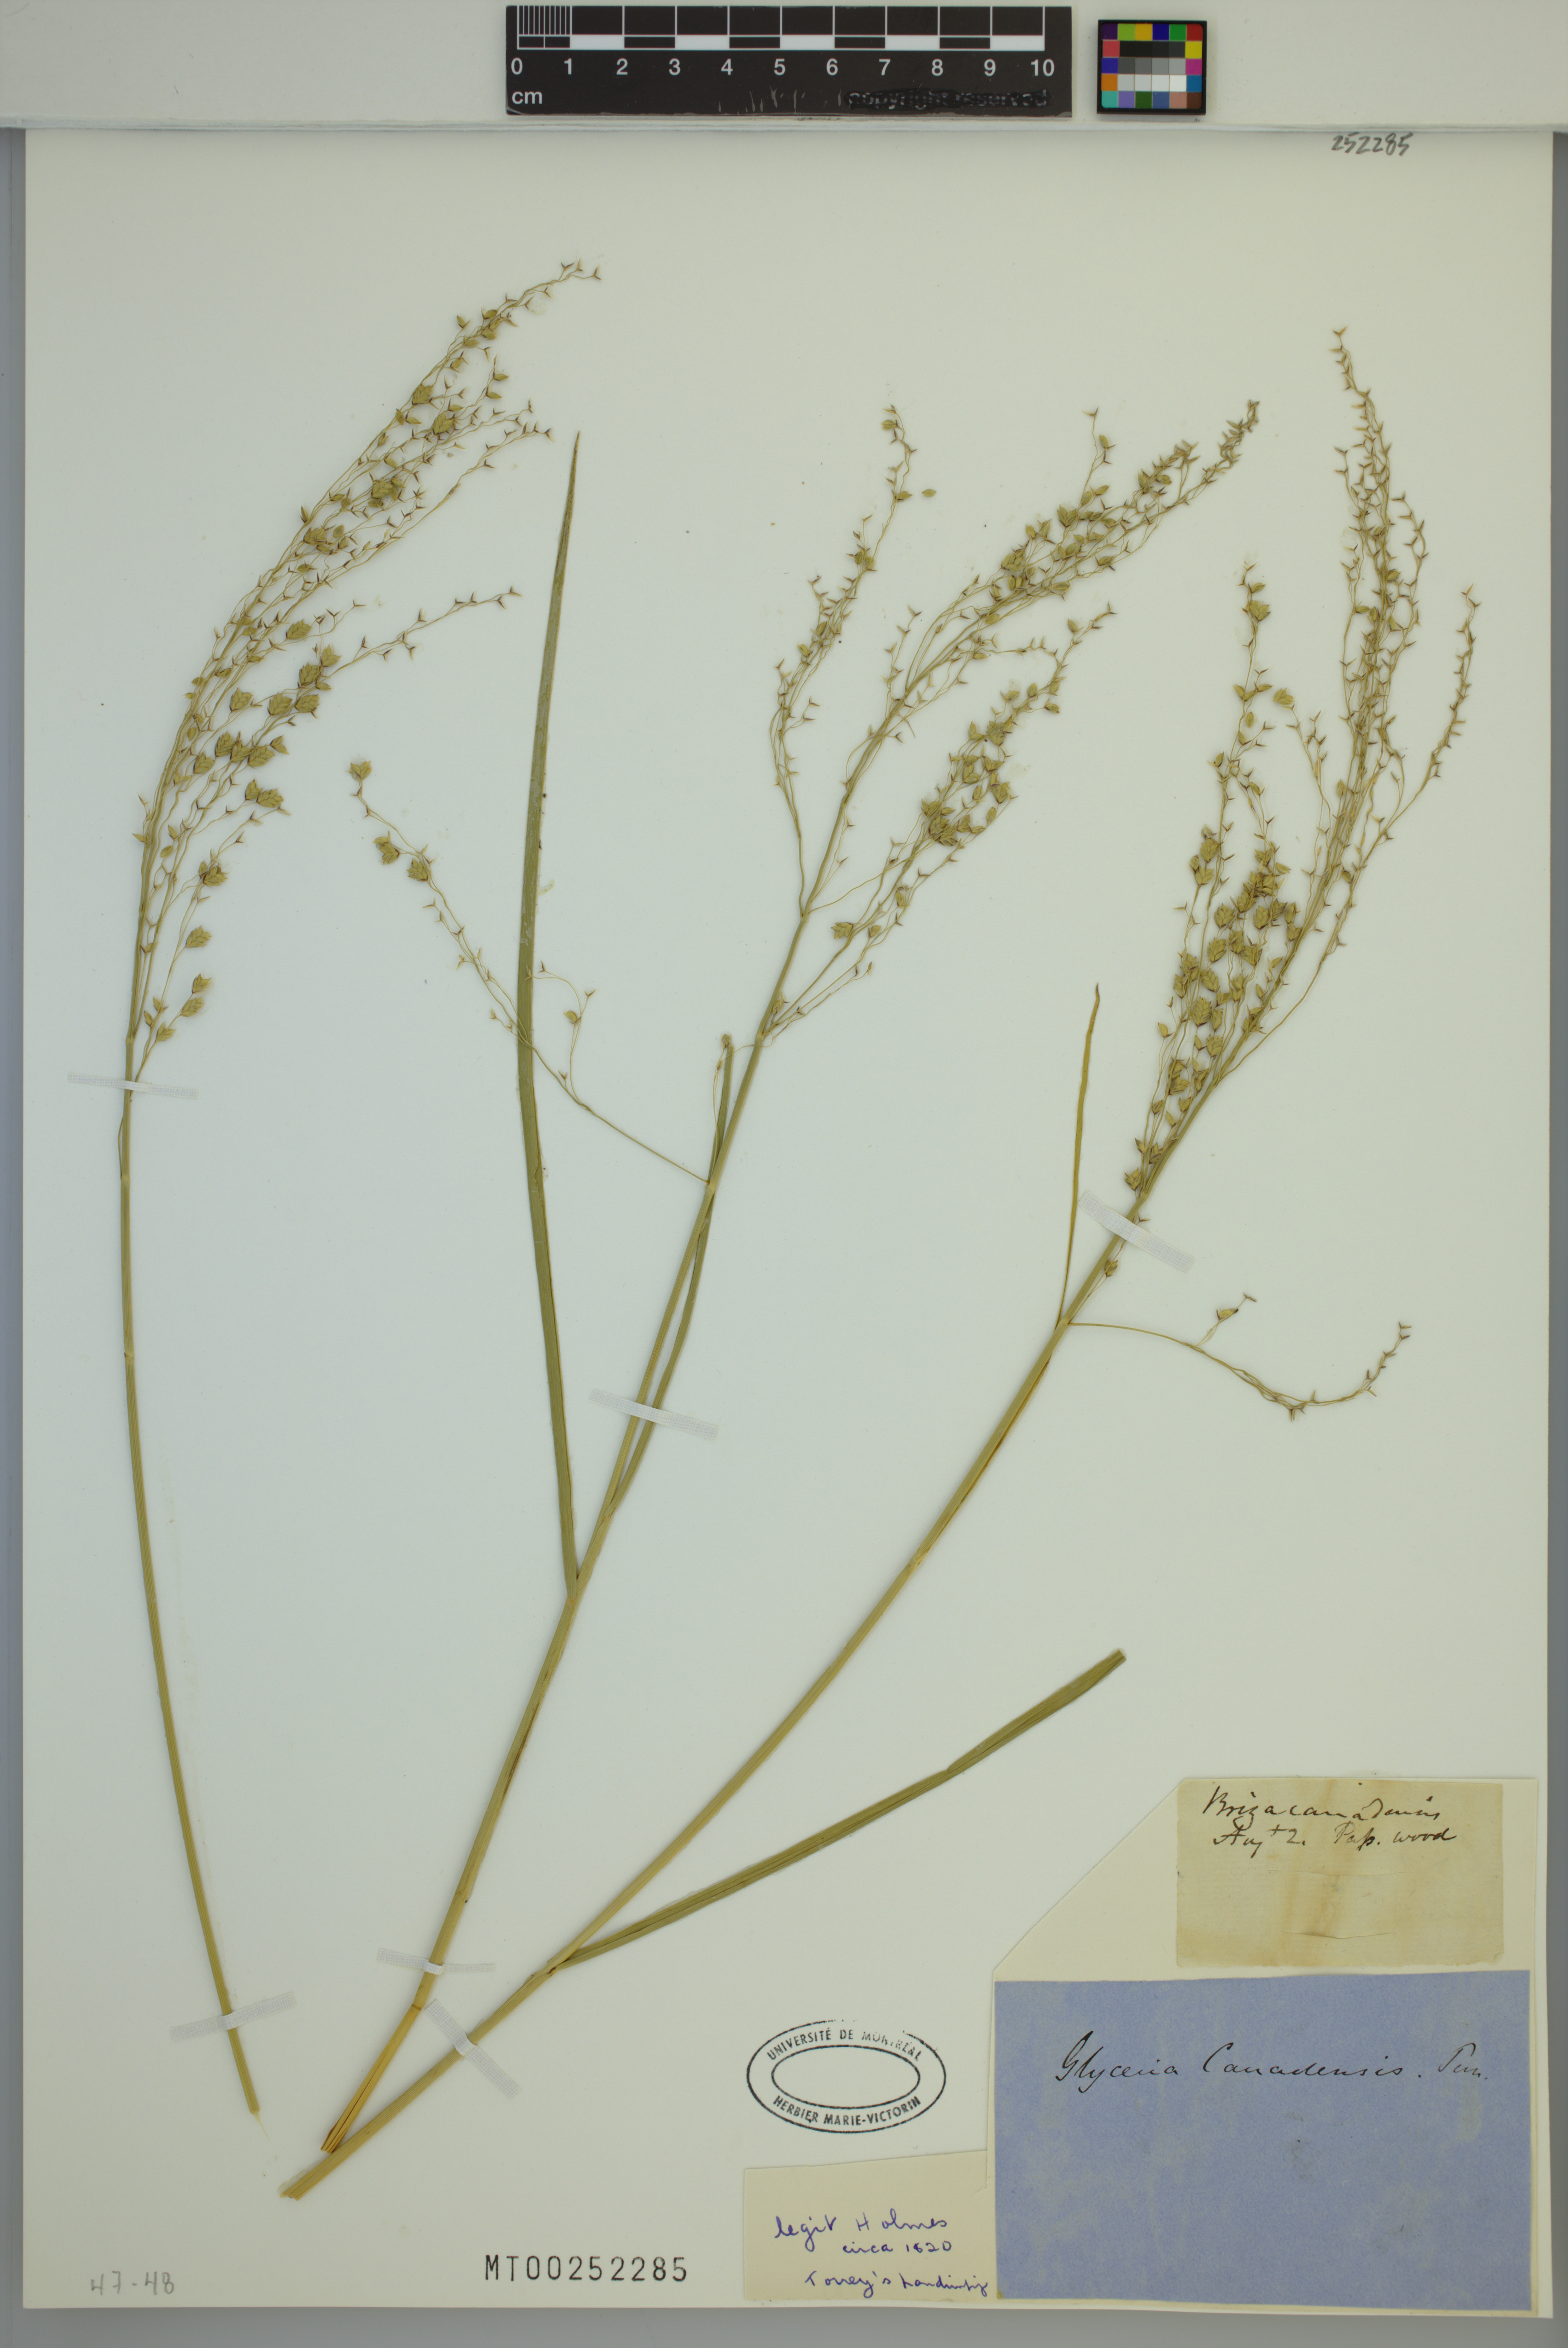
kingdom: Plantae
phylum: Tracheophyta
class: Liliopsida
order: Poales
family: Poaceae
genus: Glyceria
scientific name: Glyceria canadensis
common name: Canada mannagrass
